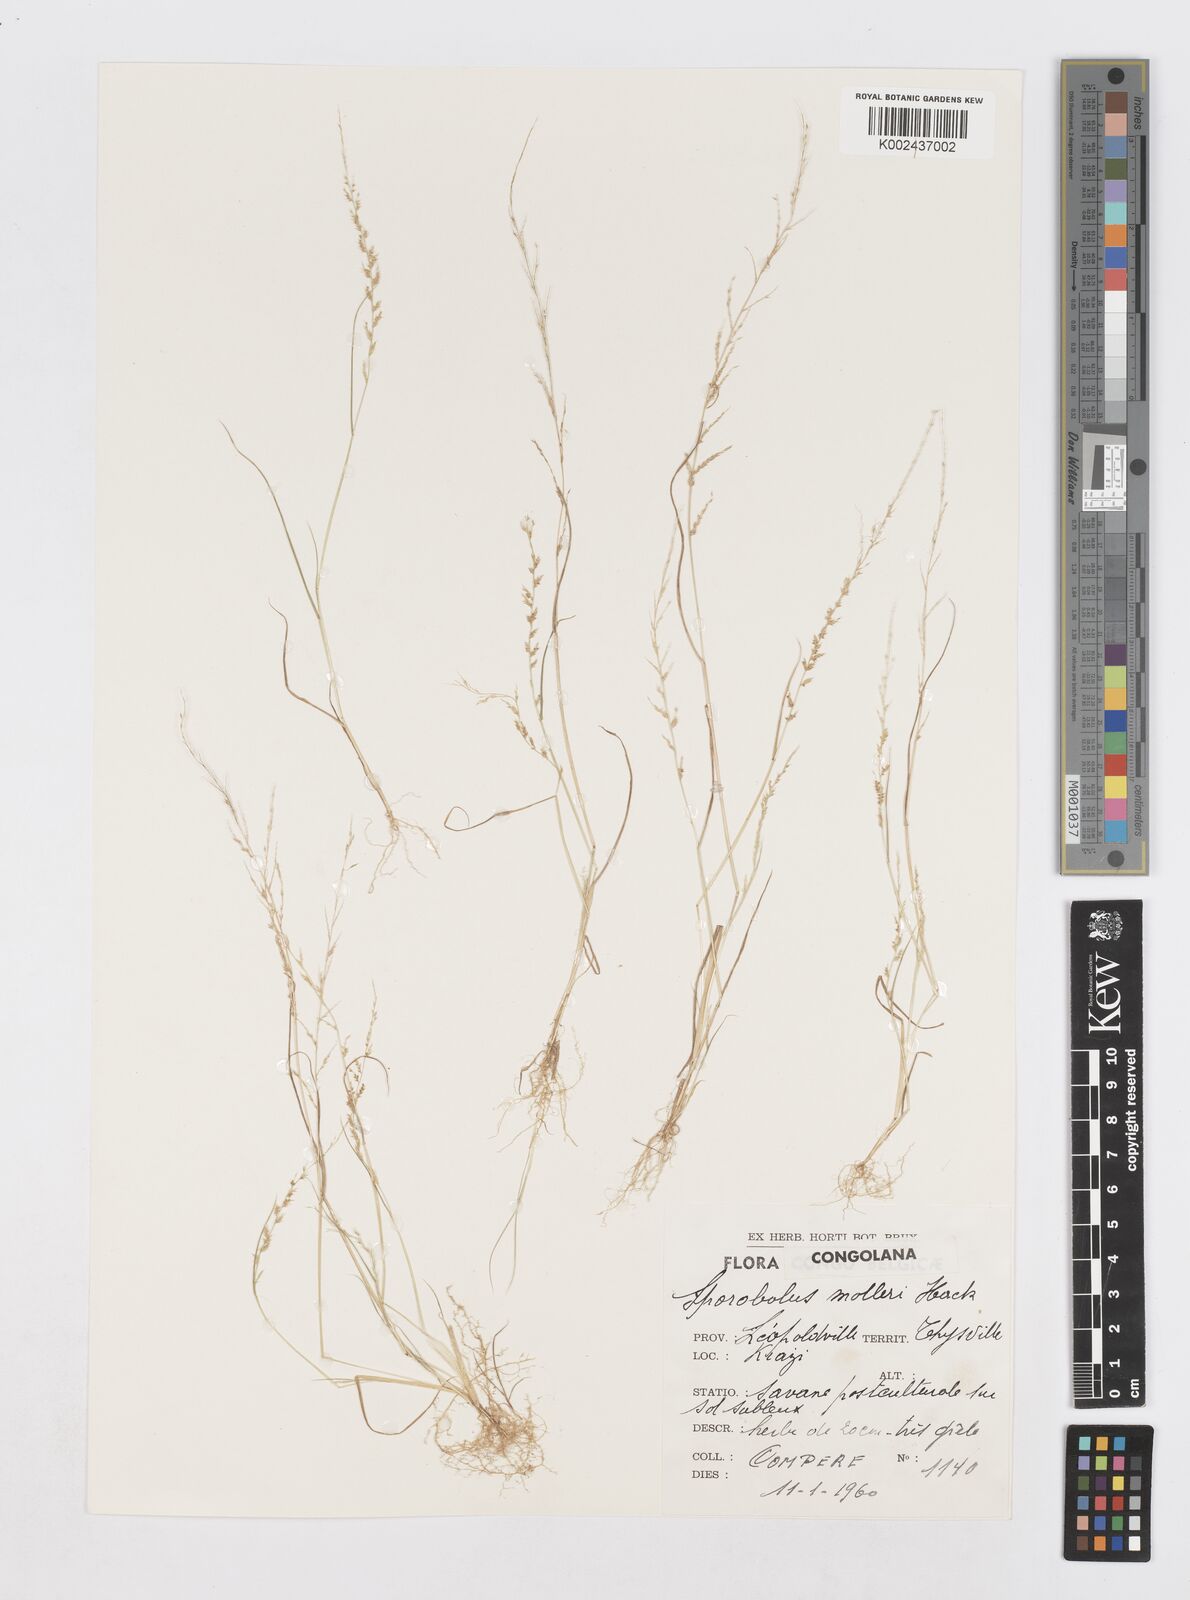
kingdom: Plantae
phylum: Tracheophyta
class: Liliopsida
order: Poales
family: Poaceae
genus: Sporobolus
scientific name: Sporobolus molleri
